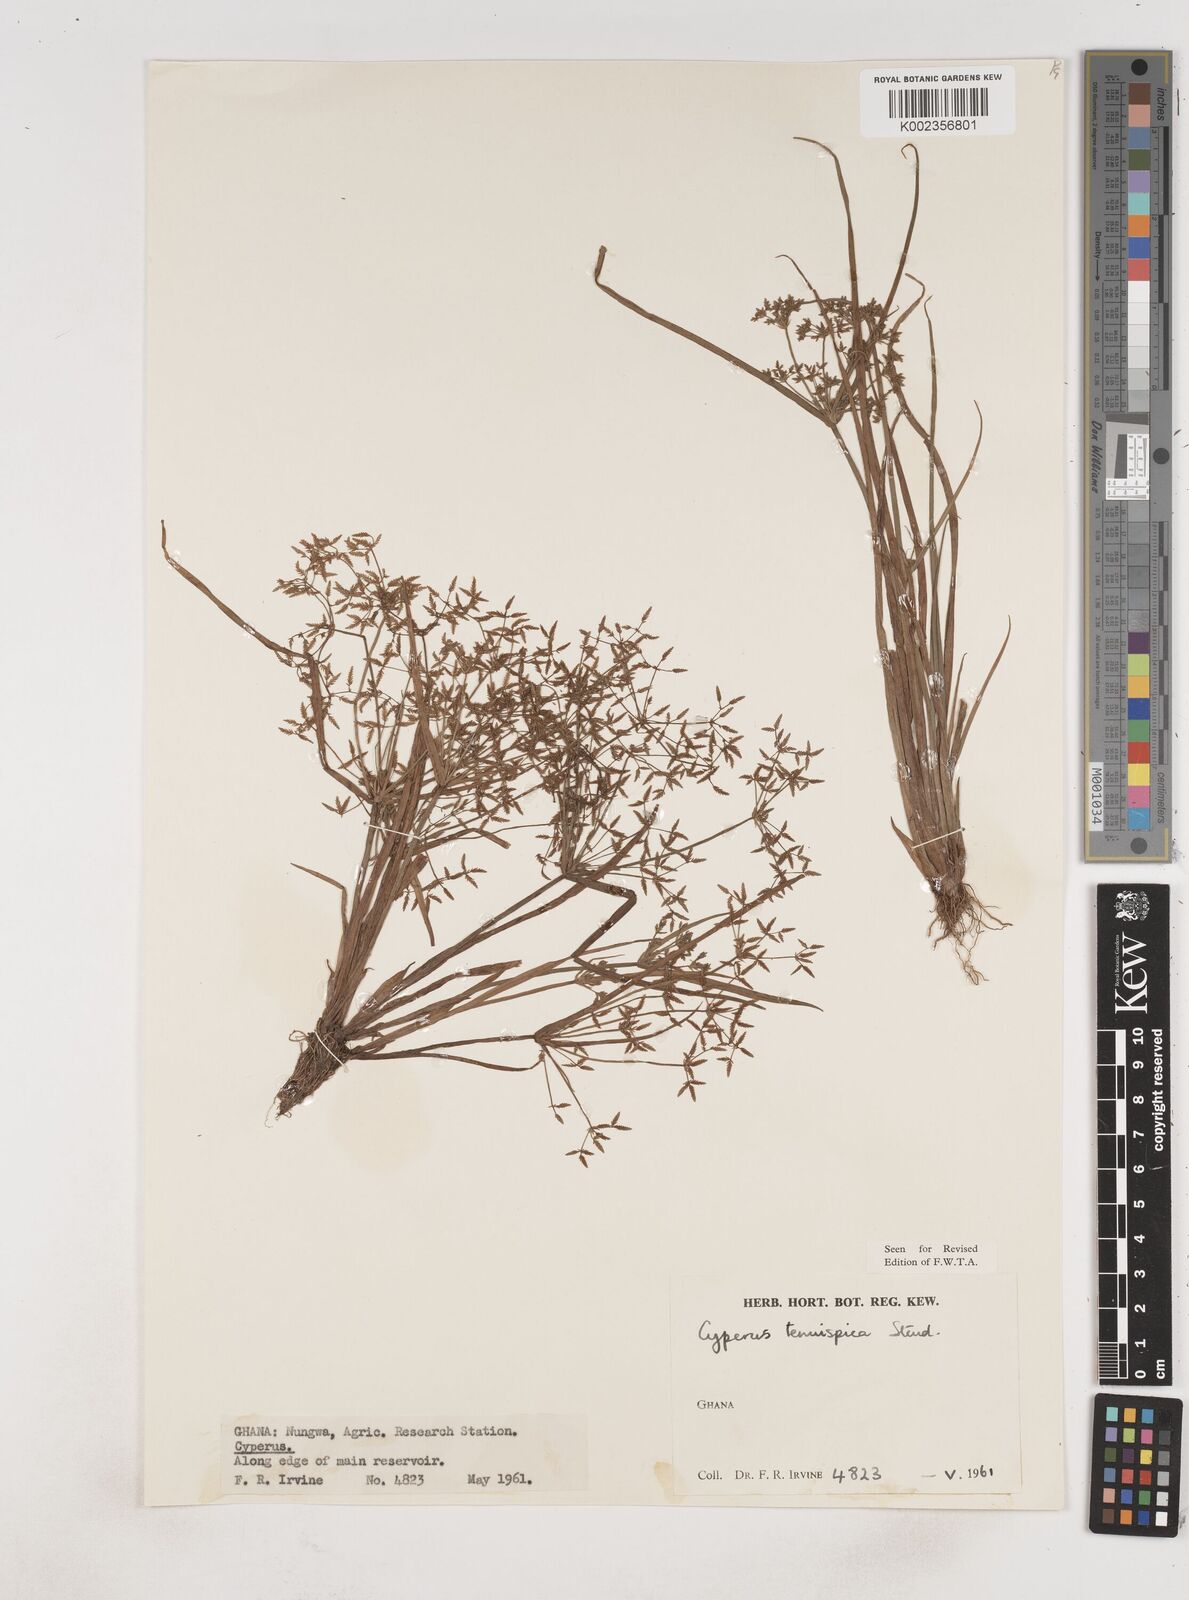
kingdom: Plantae
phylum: Tracheophyta
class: Liliopsida
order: Poales
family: Cyperaceae
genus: Cyperus
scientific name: Cyperus tenuispica
